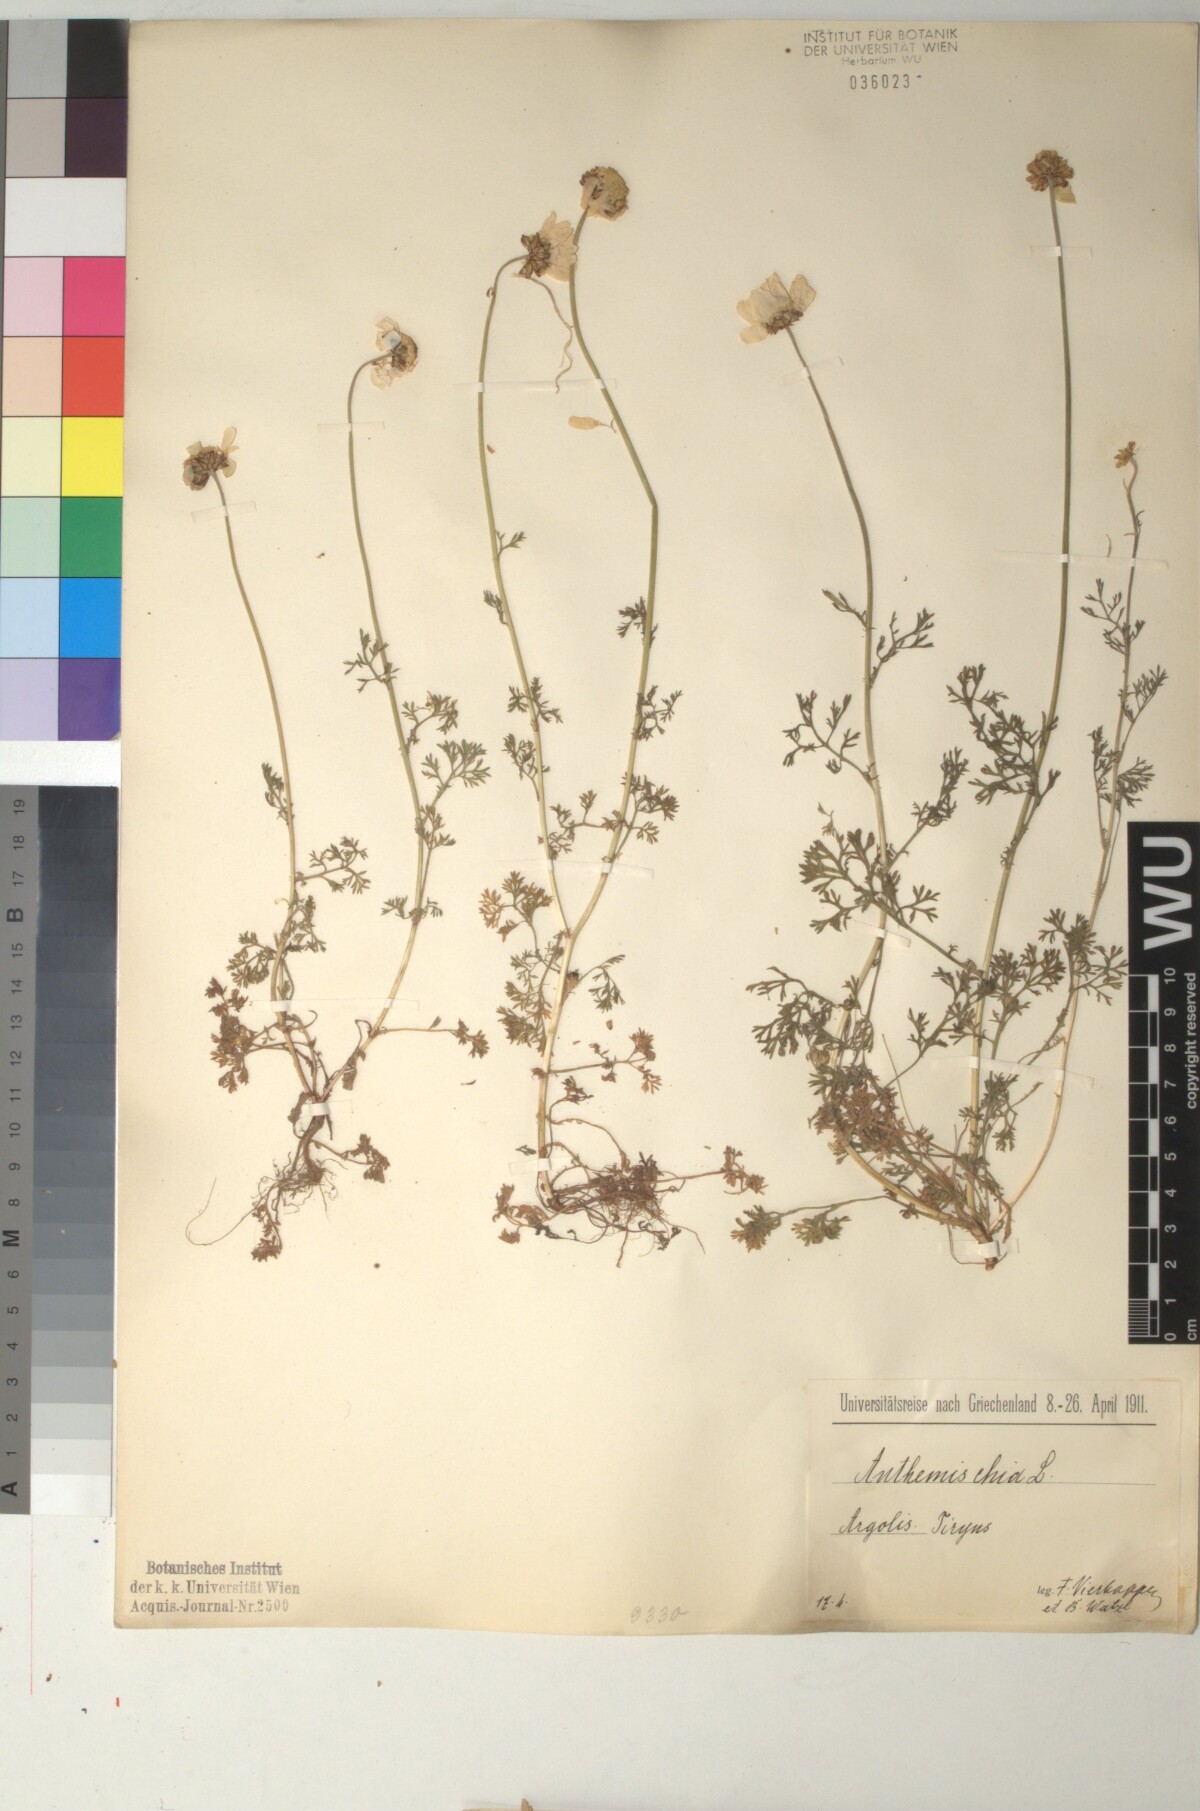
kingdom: Plantae
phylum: Tracheophyta
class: Magnoliopsida
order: Asterales
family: Asteraceae
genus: Anthemis
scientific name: Anthemis chia
